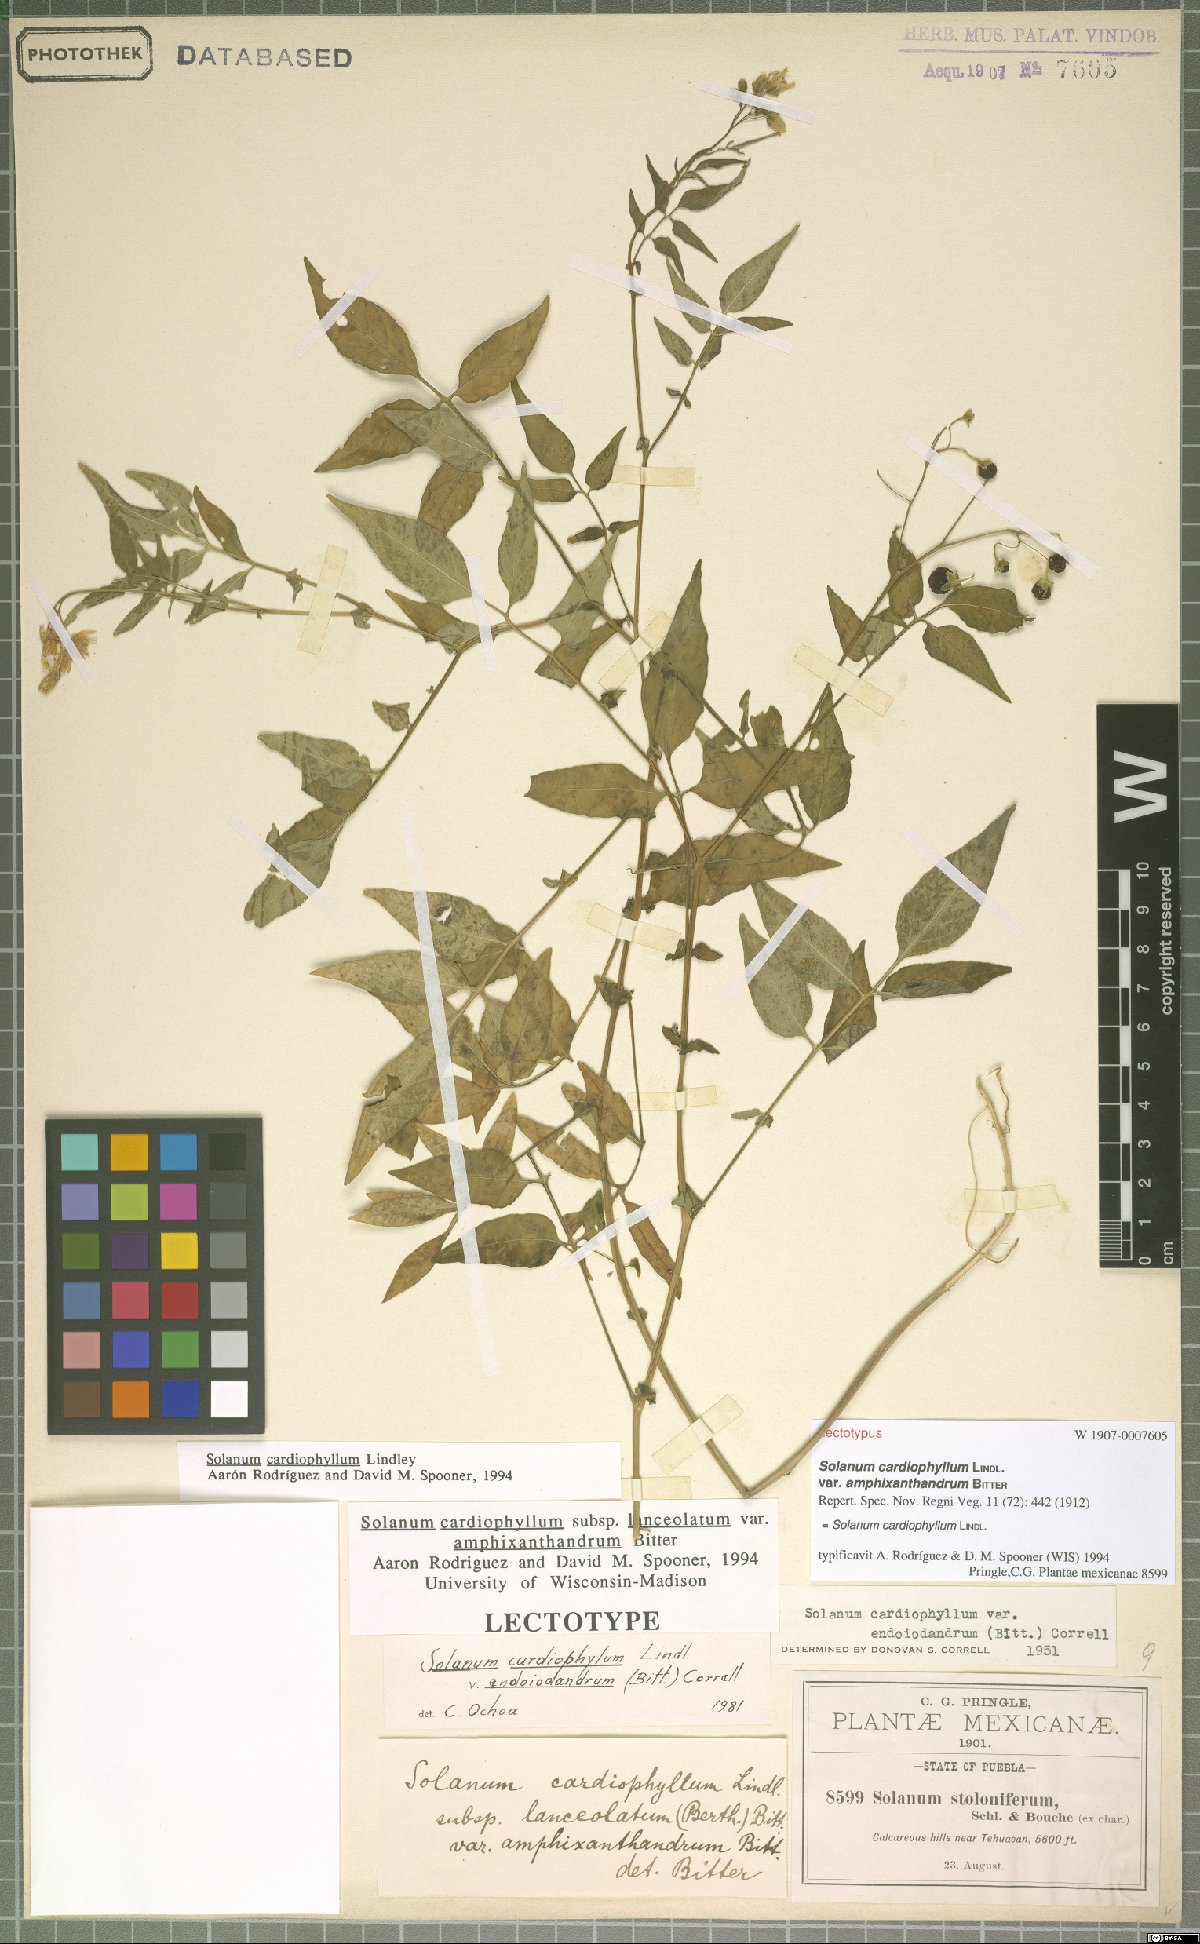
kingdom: Plantae
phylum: Tracheophyta
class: Magnoliopsida
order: Solanales
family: Solanaceae
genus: Solanum
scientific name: Solanum cardiophyllum
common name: Heartleaf horsenettle
